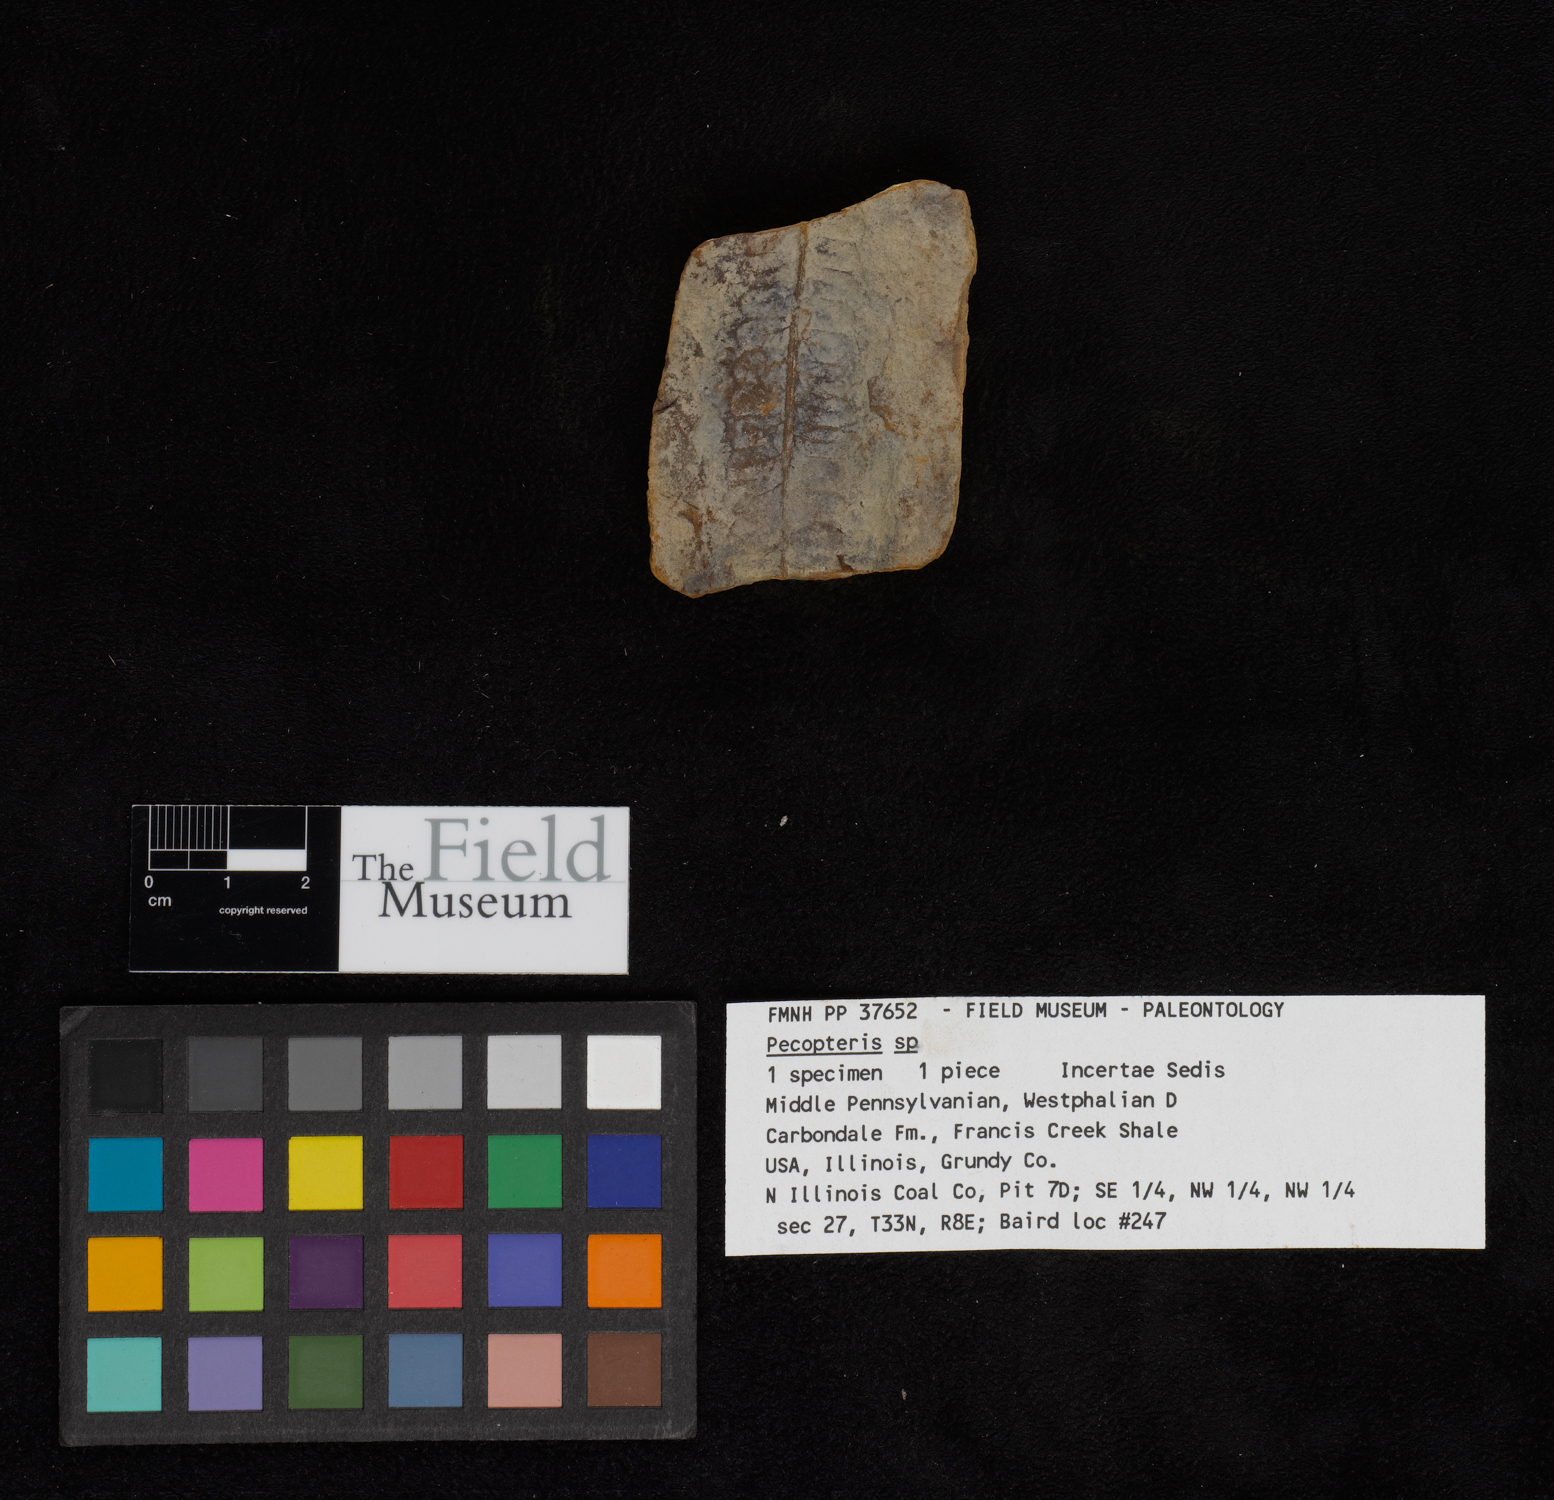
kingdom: Plantae
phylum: Tracheophyta
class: Polypodiopsida
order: Marattiales
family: Asterothecaceae
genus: Pecopteris
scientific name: Pecopteris
